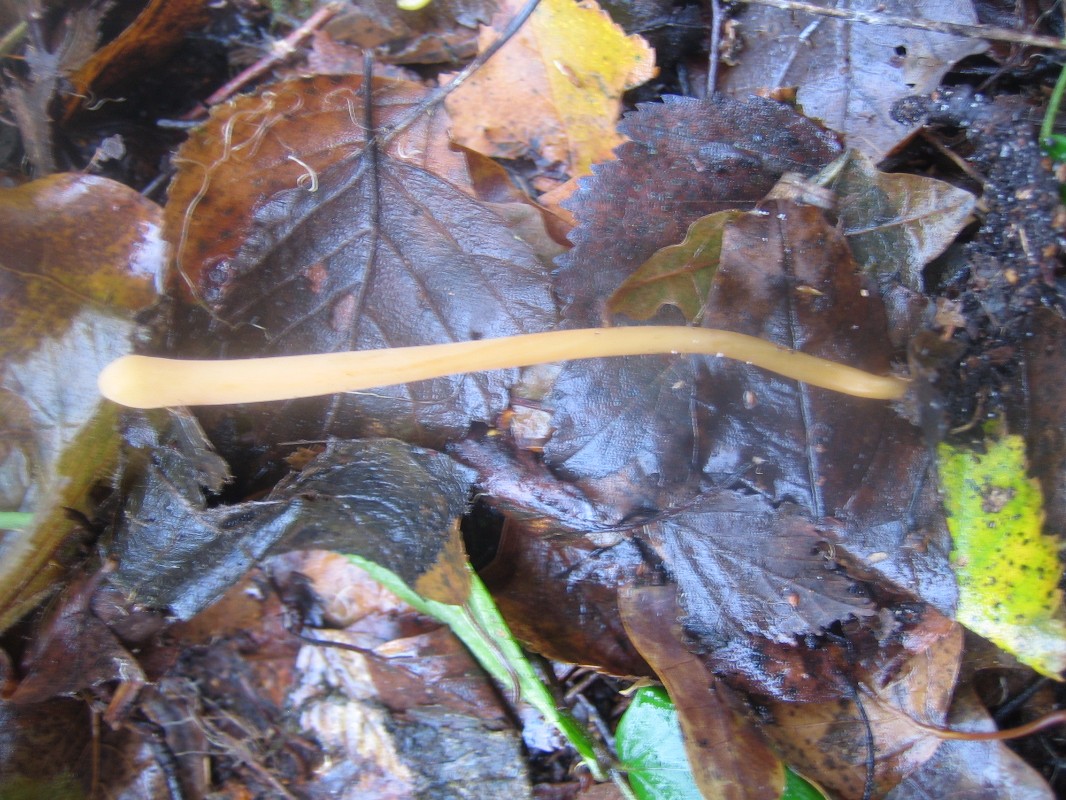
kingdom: Fungi
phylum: Basidiomycota
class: Agaricomycetes
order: Agaricales
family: Typhulaceae
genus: Typhula
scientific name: Typhula fistulosa
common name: pibet rørkølle
